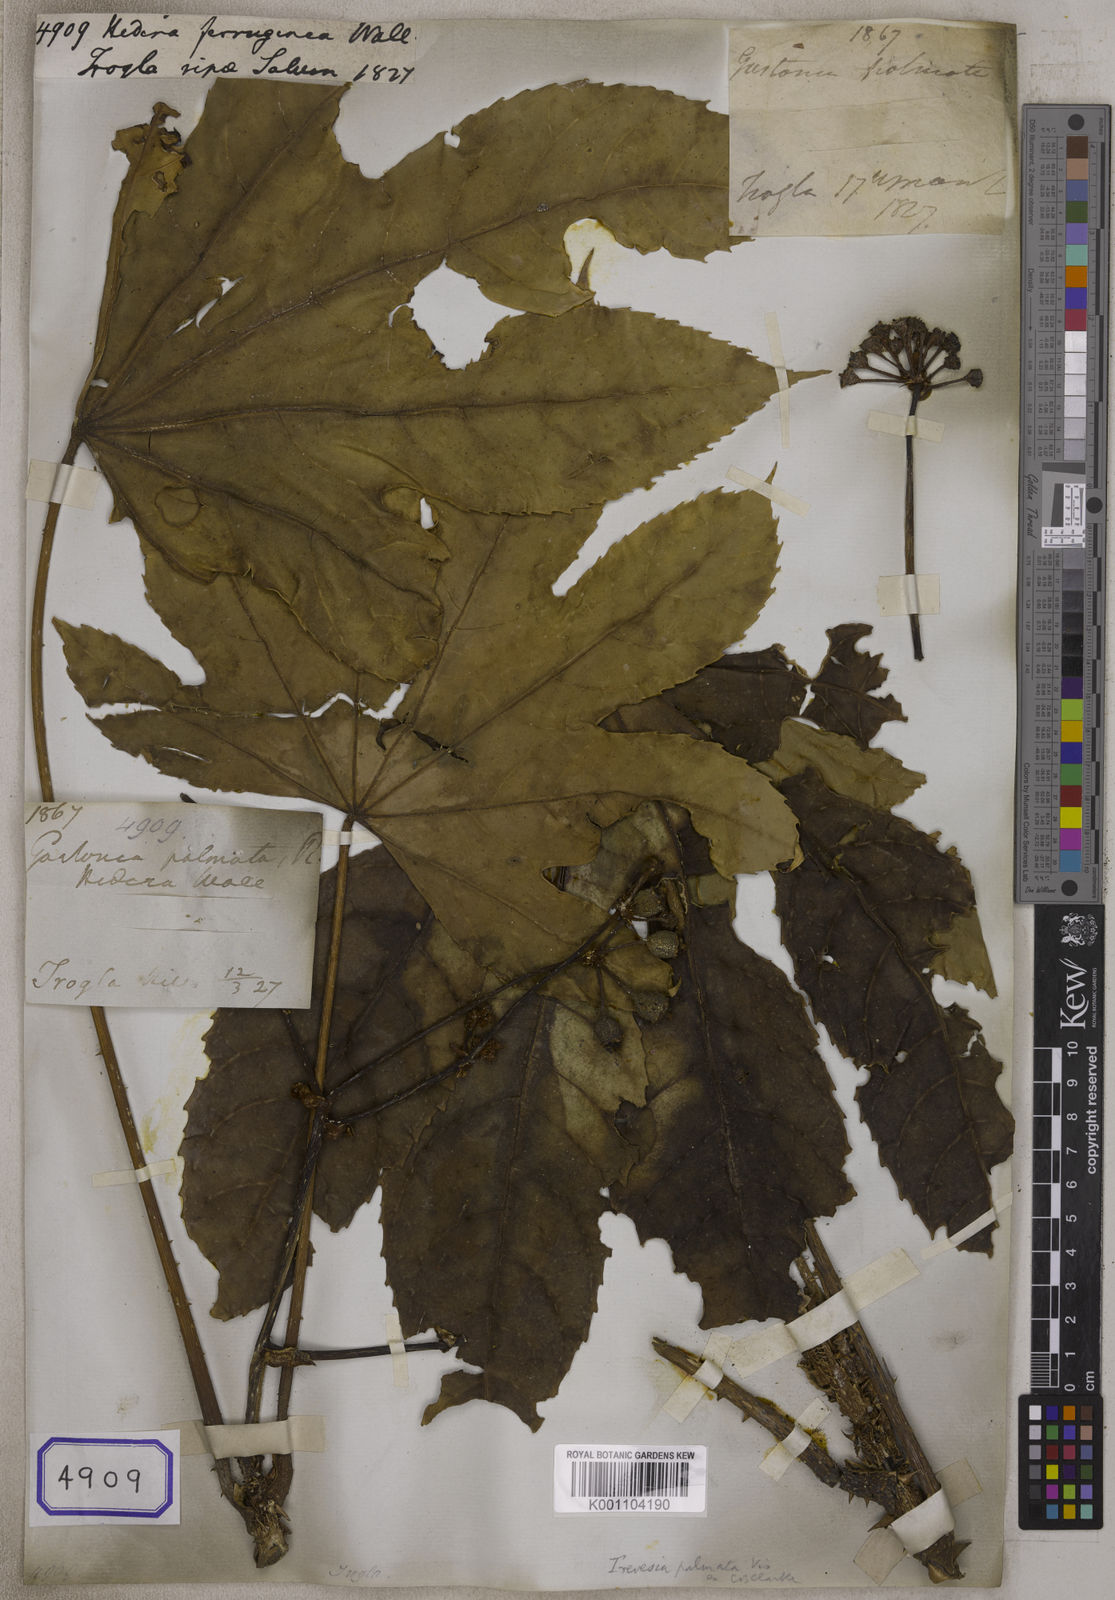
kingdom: Plantae
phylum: Tracheophyta
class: Magnoliopsida
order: Apiales
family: Araliaceae
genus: Trevesia
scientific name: Trevesia palmata
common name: Snowflakeplant
